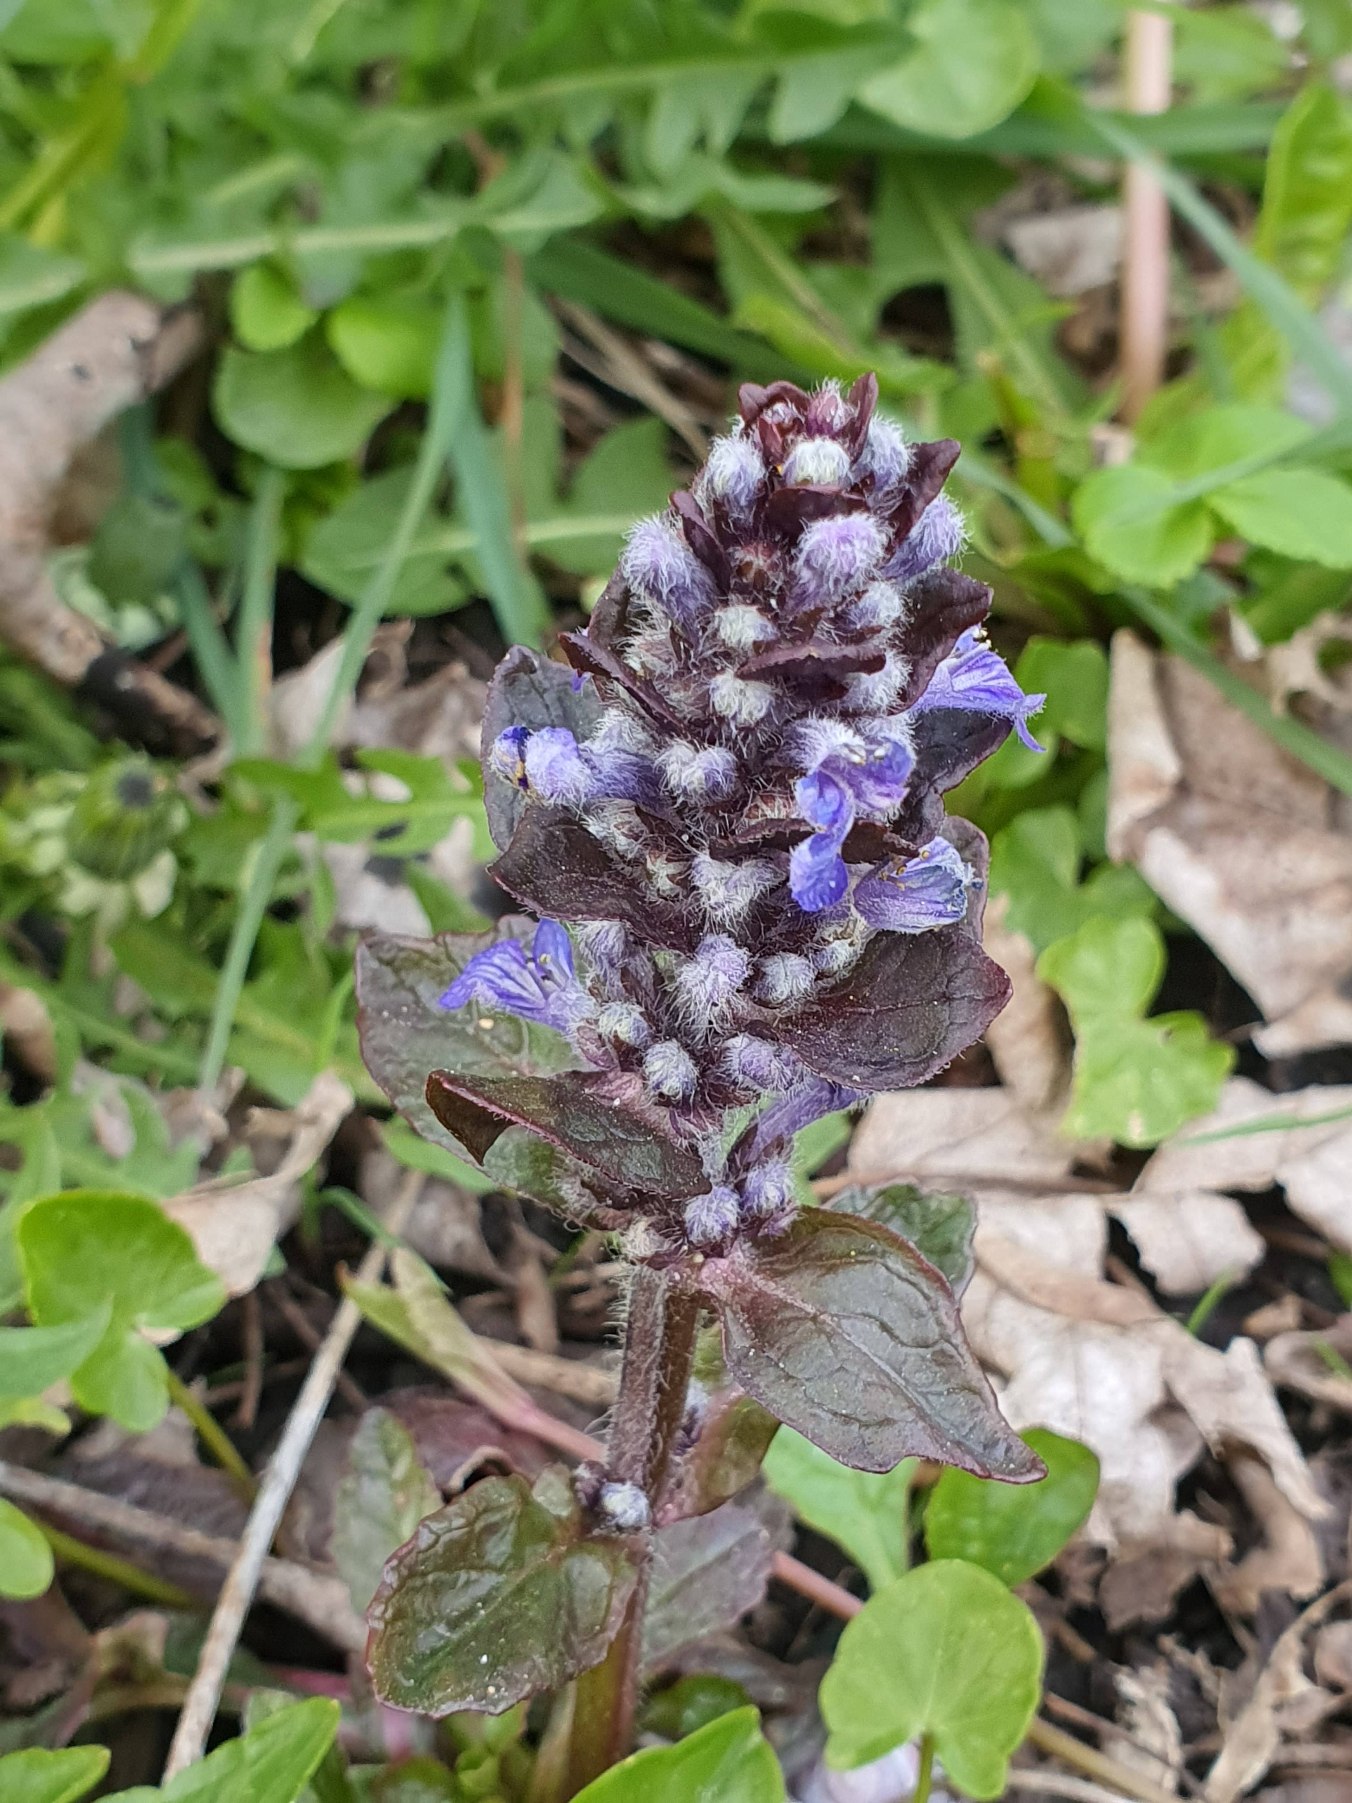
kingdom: Plantae
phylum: Tracheophyta
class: Magnoliopsida
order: Lamiales
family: Lamiaceae
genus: Ajuga
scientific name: Ajuga reptans
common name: Krybende læbeløs
